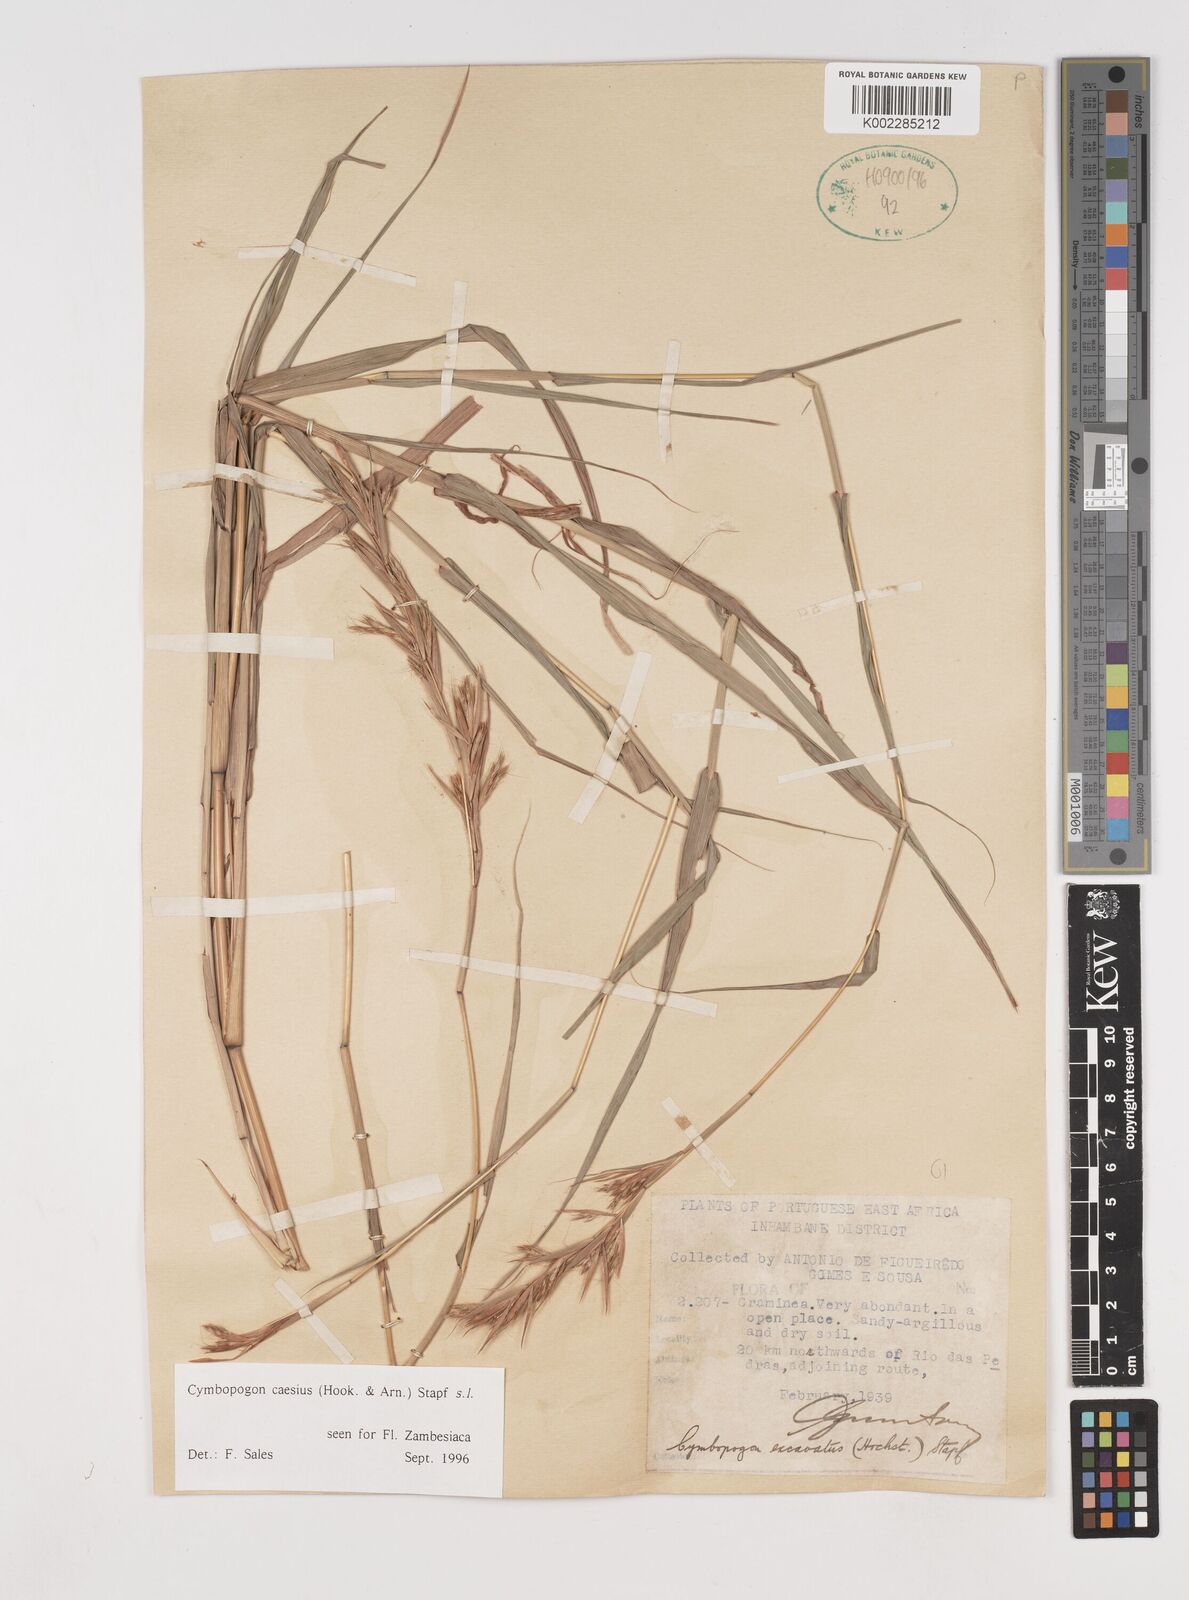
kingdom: Plantae
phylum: Tracheophyta
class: Liliopsida
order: Poales
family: Poaceae
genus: Cymbopogon
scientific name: Cymbopogon caesius
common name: Kachi grass
